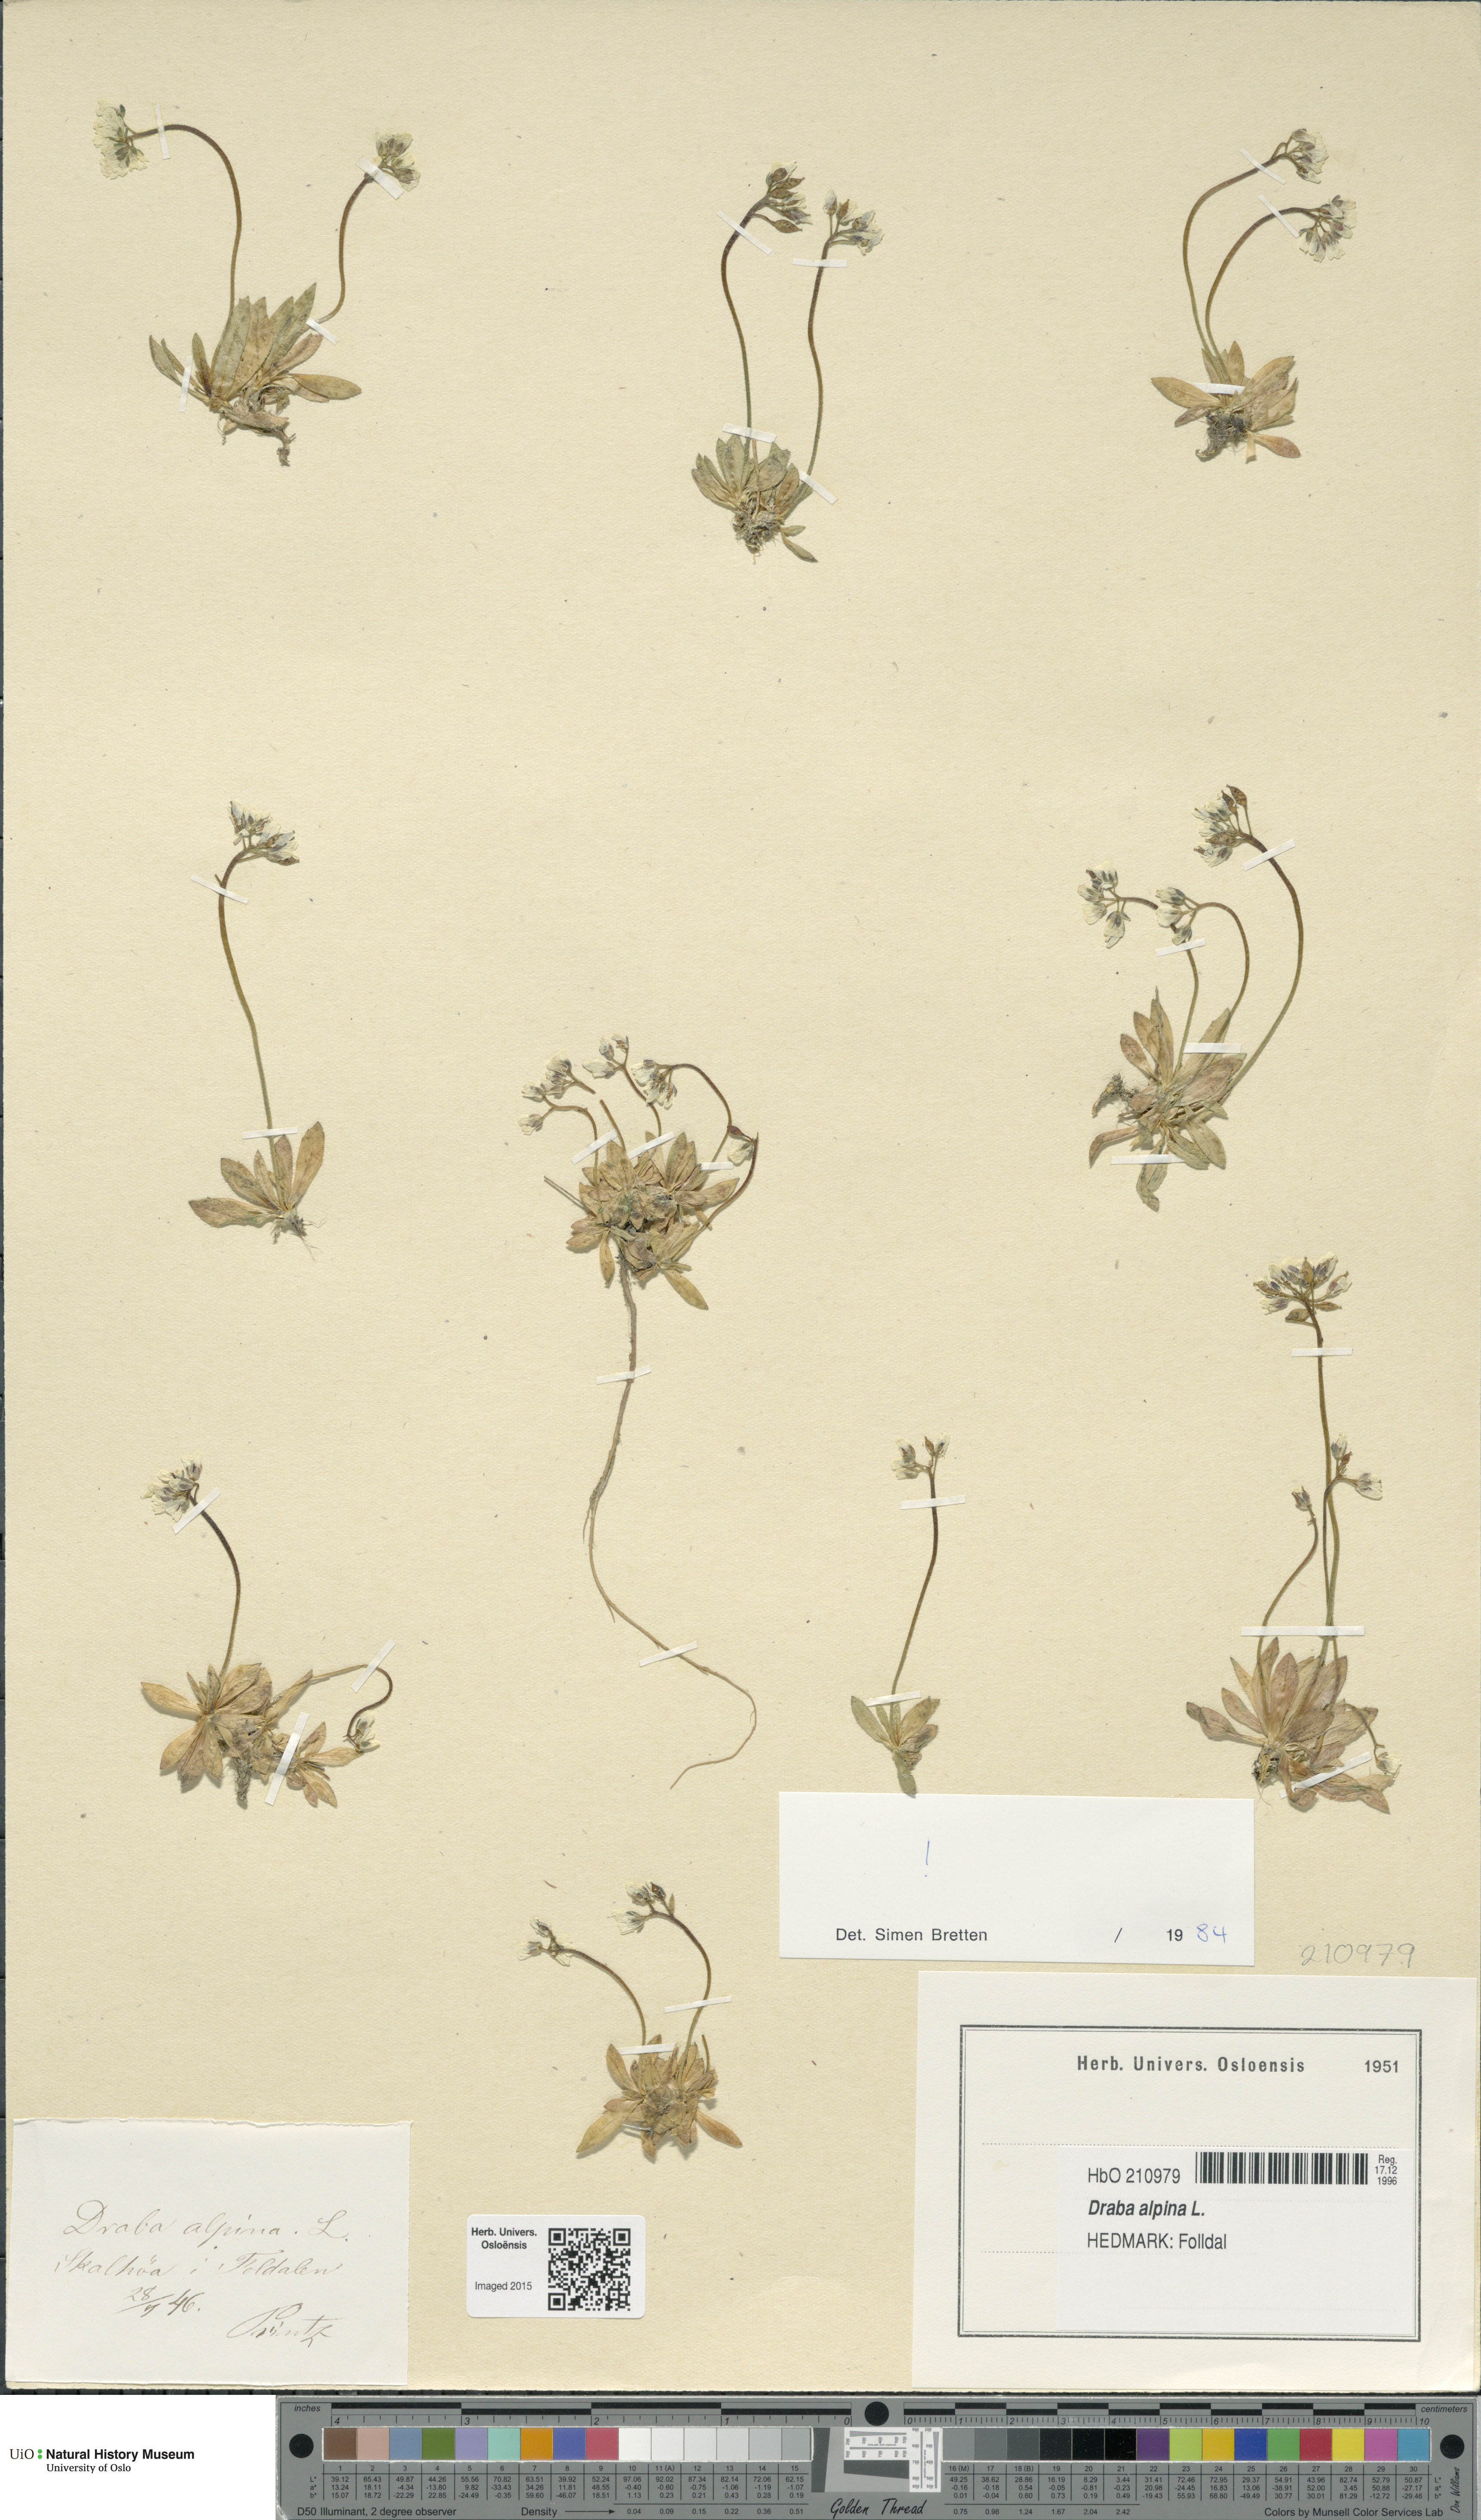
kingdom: Plantae
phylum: Tracheophyta
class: Magnoliopsida
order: Brassicales
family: Brassicaceae
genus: Draba
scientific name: Draba alpina
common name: Alpine draba
